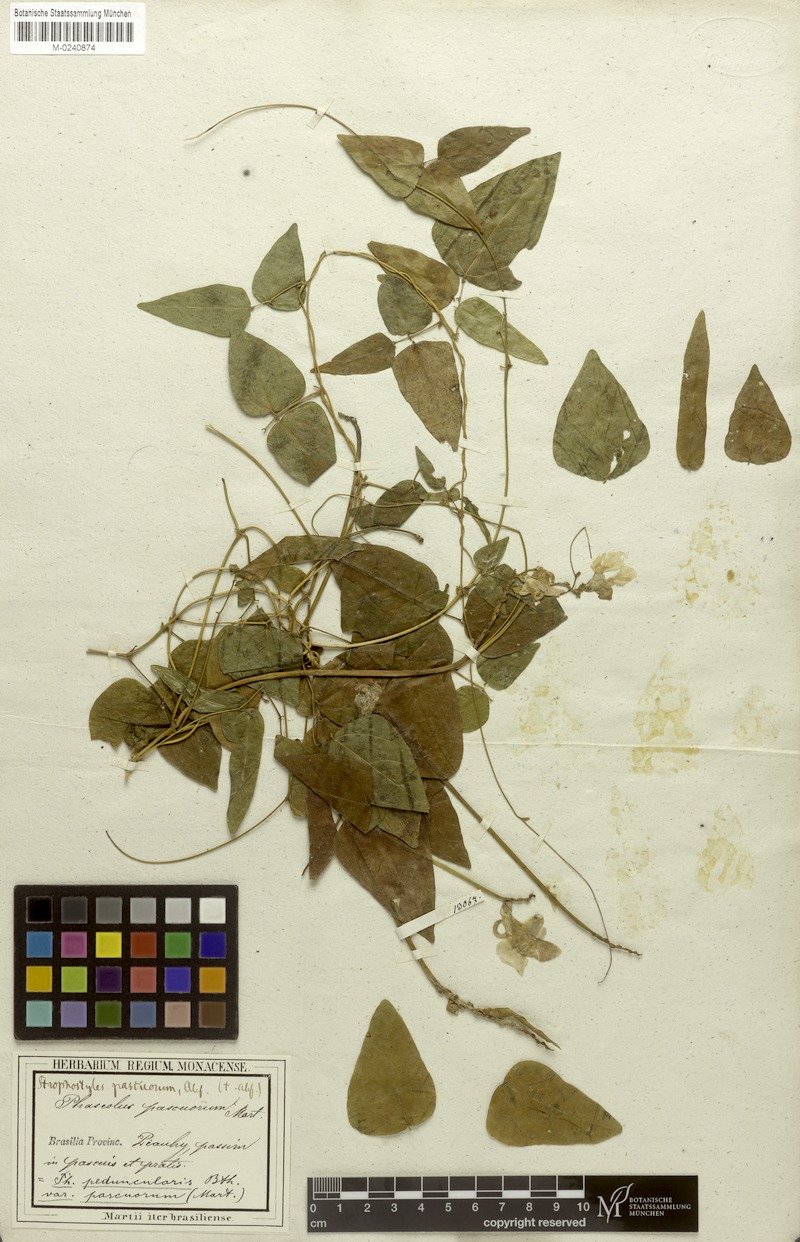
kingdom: Plantae
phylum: Tracheophyta
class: Magnoliopsida
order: Fabales
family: Fabaceae
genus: Ancistrotropis
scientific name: Ancistrotropis peduncularis
